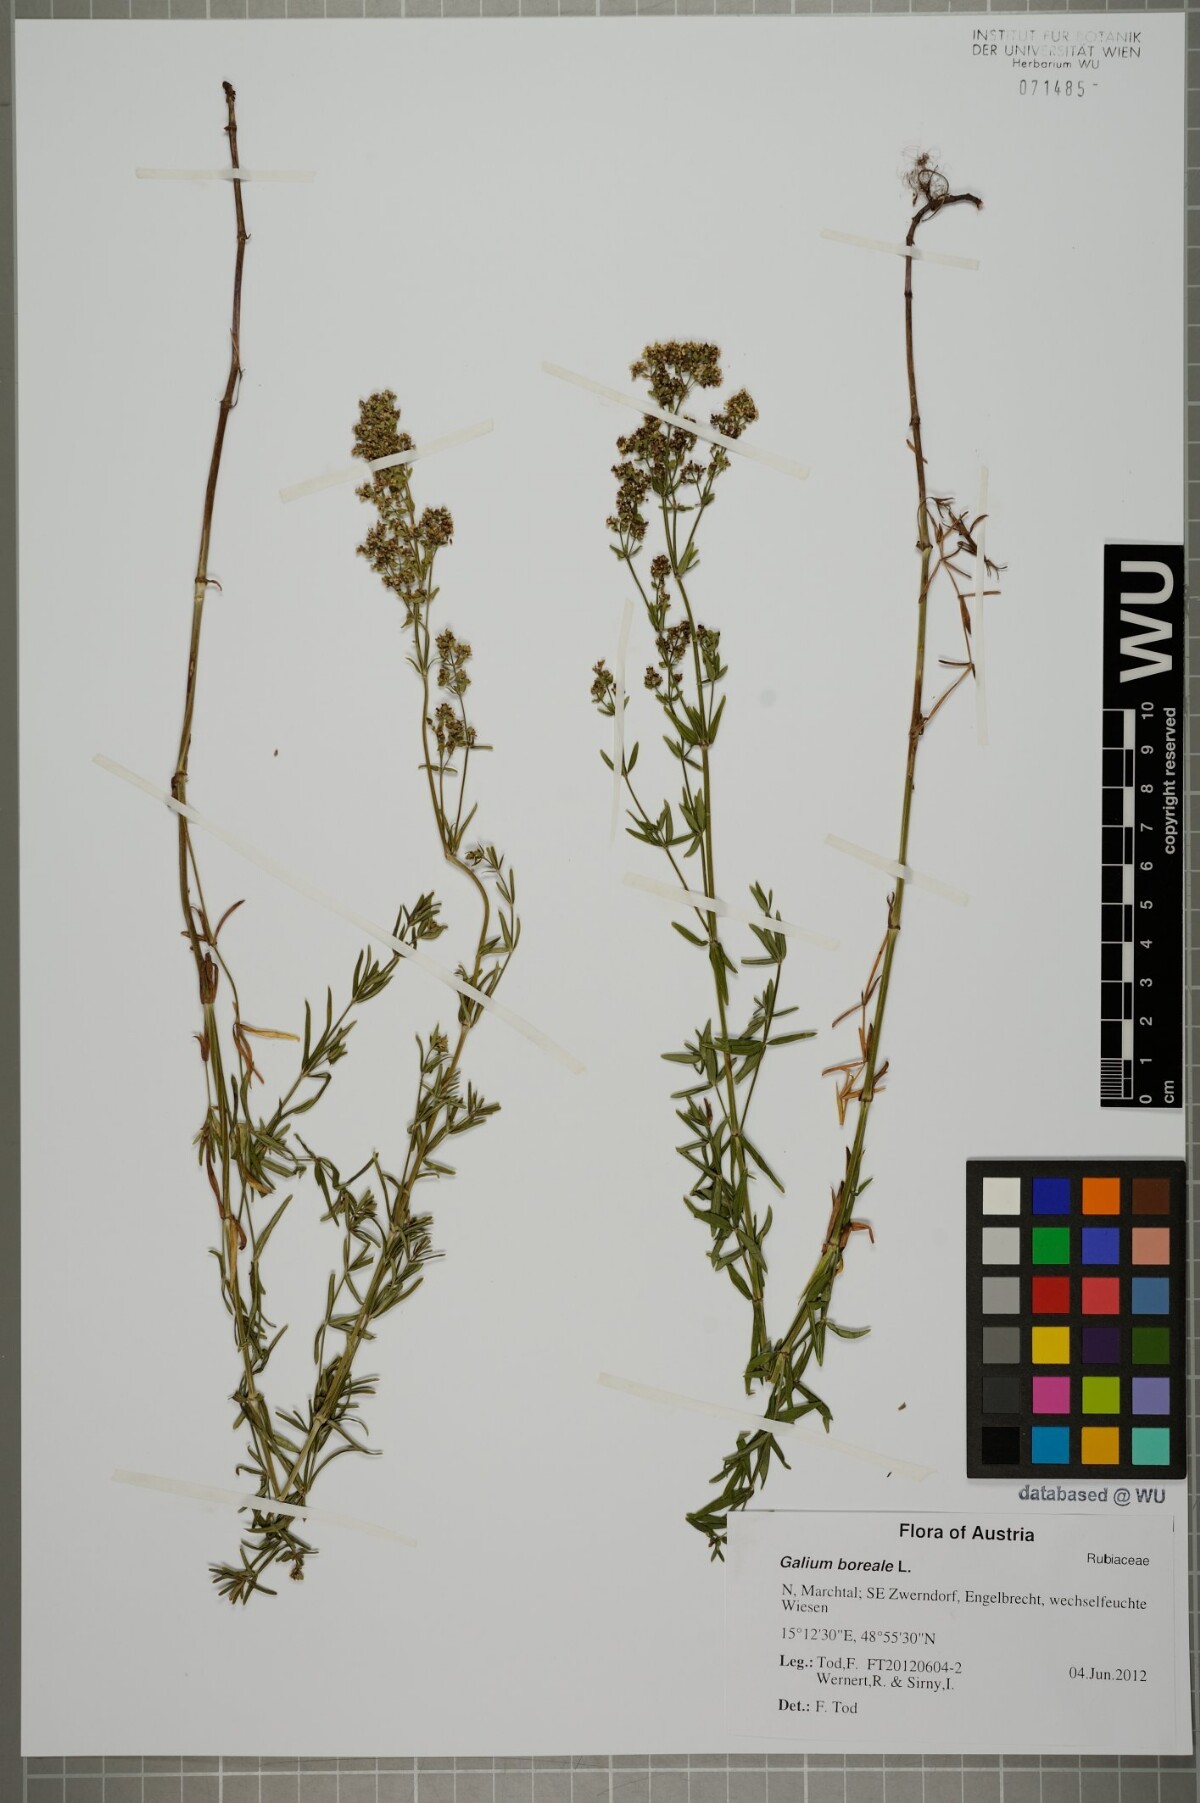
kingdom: Plantae
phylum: Tracheophyta
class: Magnoliopsida
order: Gentianales
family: Rubiaceae
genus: Galium
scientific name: Galium boreale
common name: Northern bedstraw
